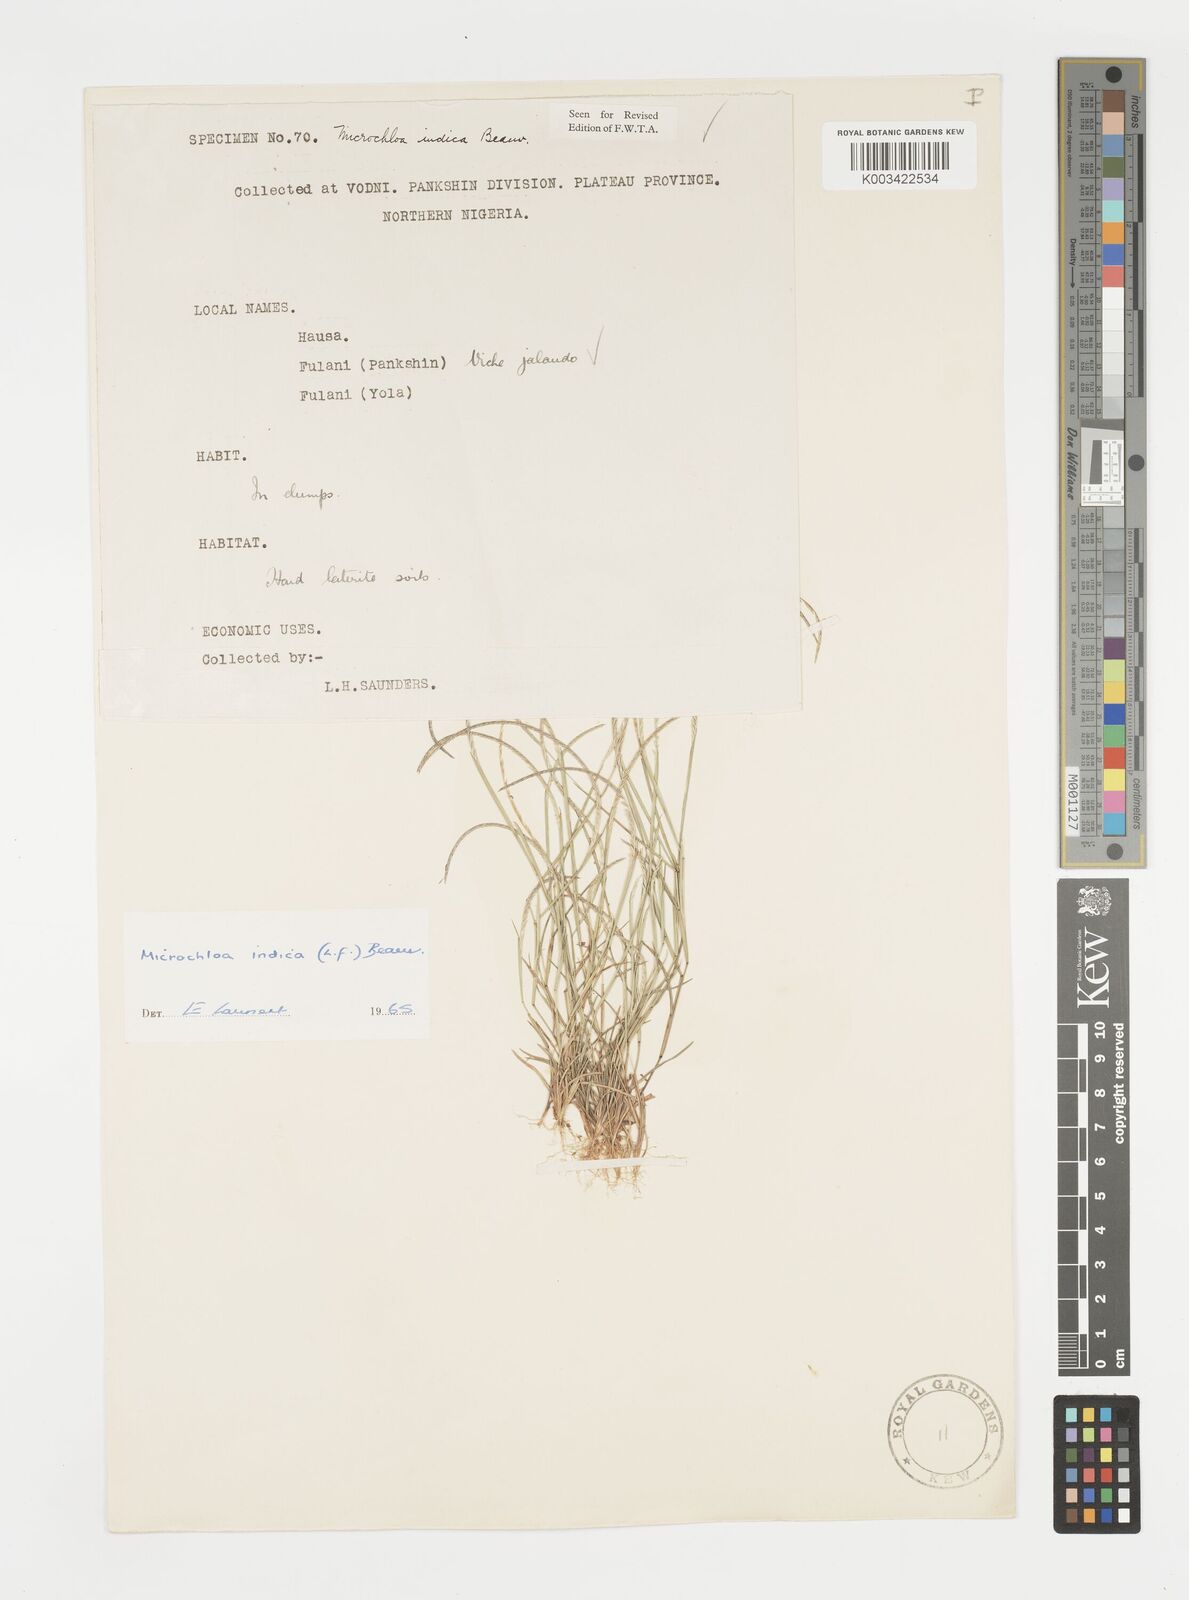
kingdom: Plantae
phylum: Tracheophyta
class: Liliopsida
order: Poales
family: Poaceae
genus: Microchloa
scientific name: Microchloa indica
